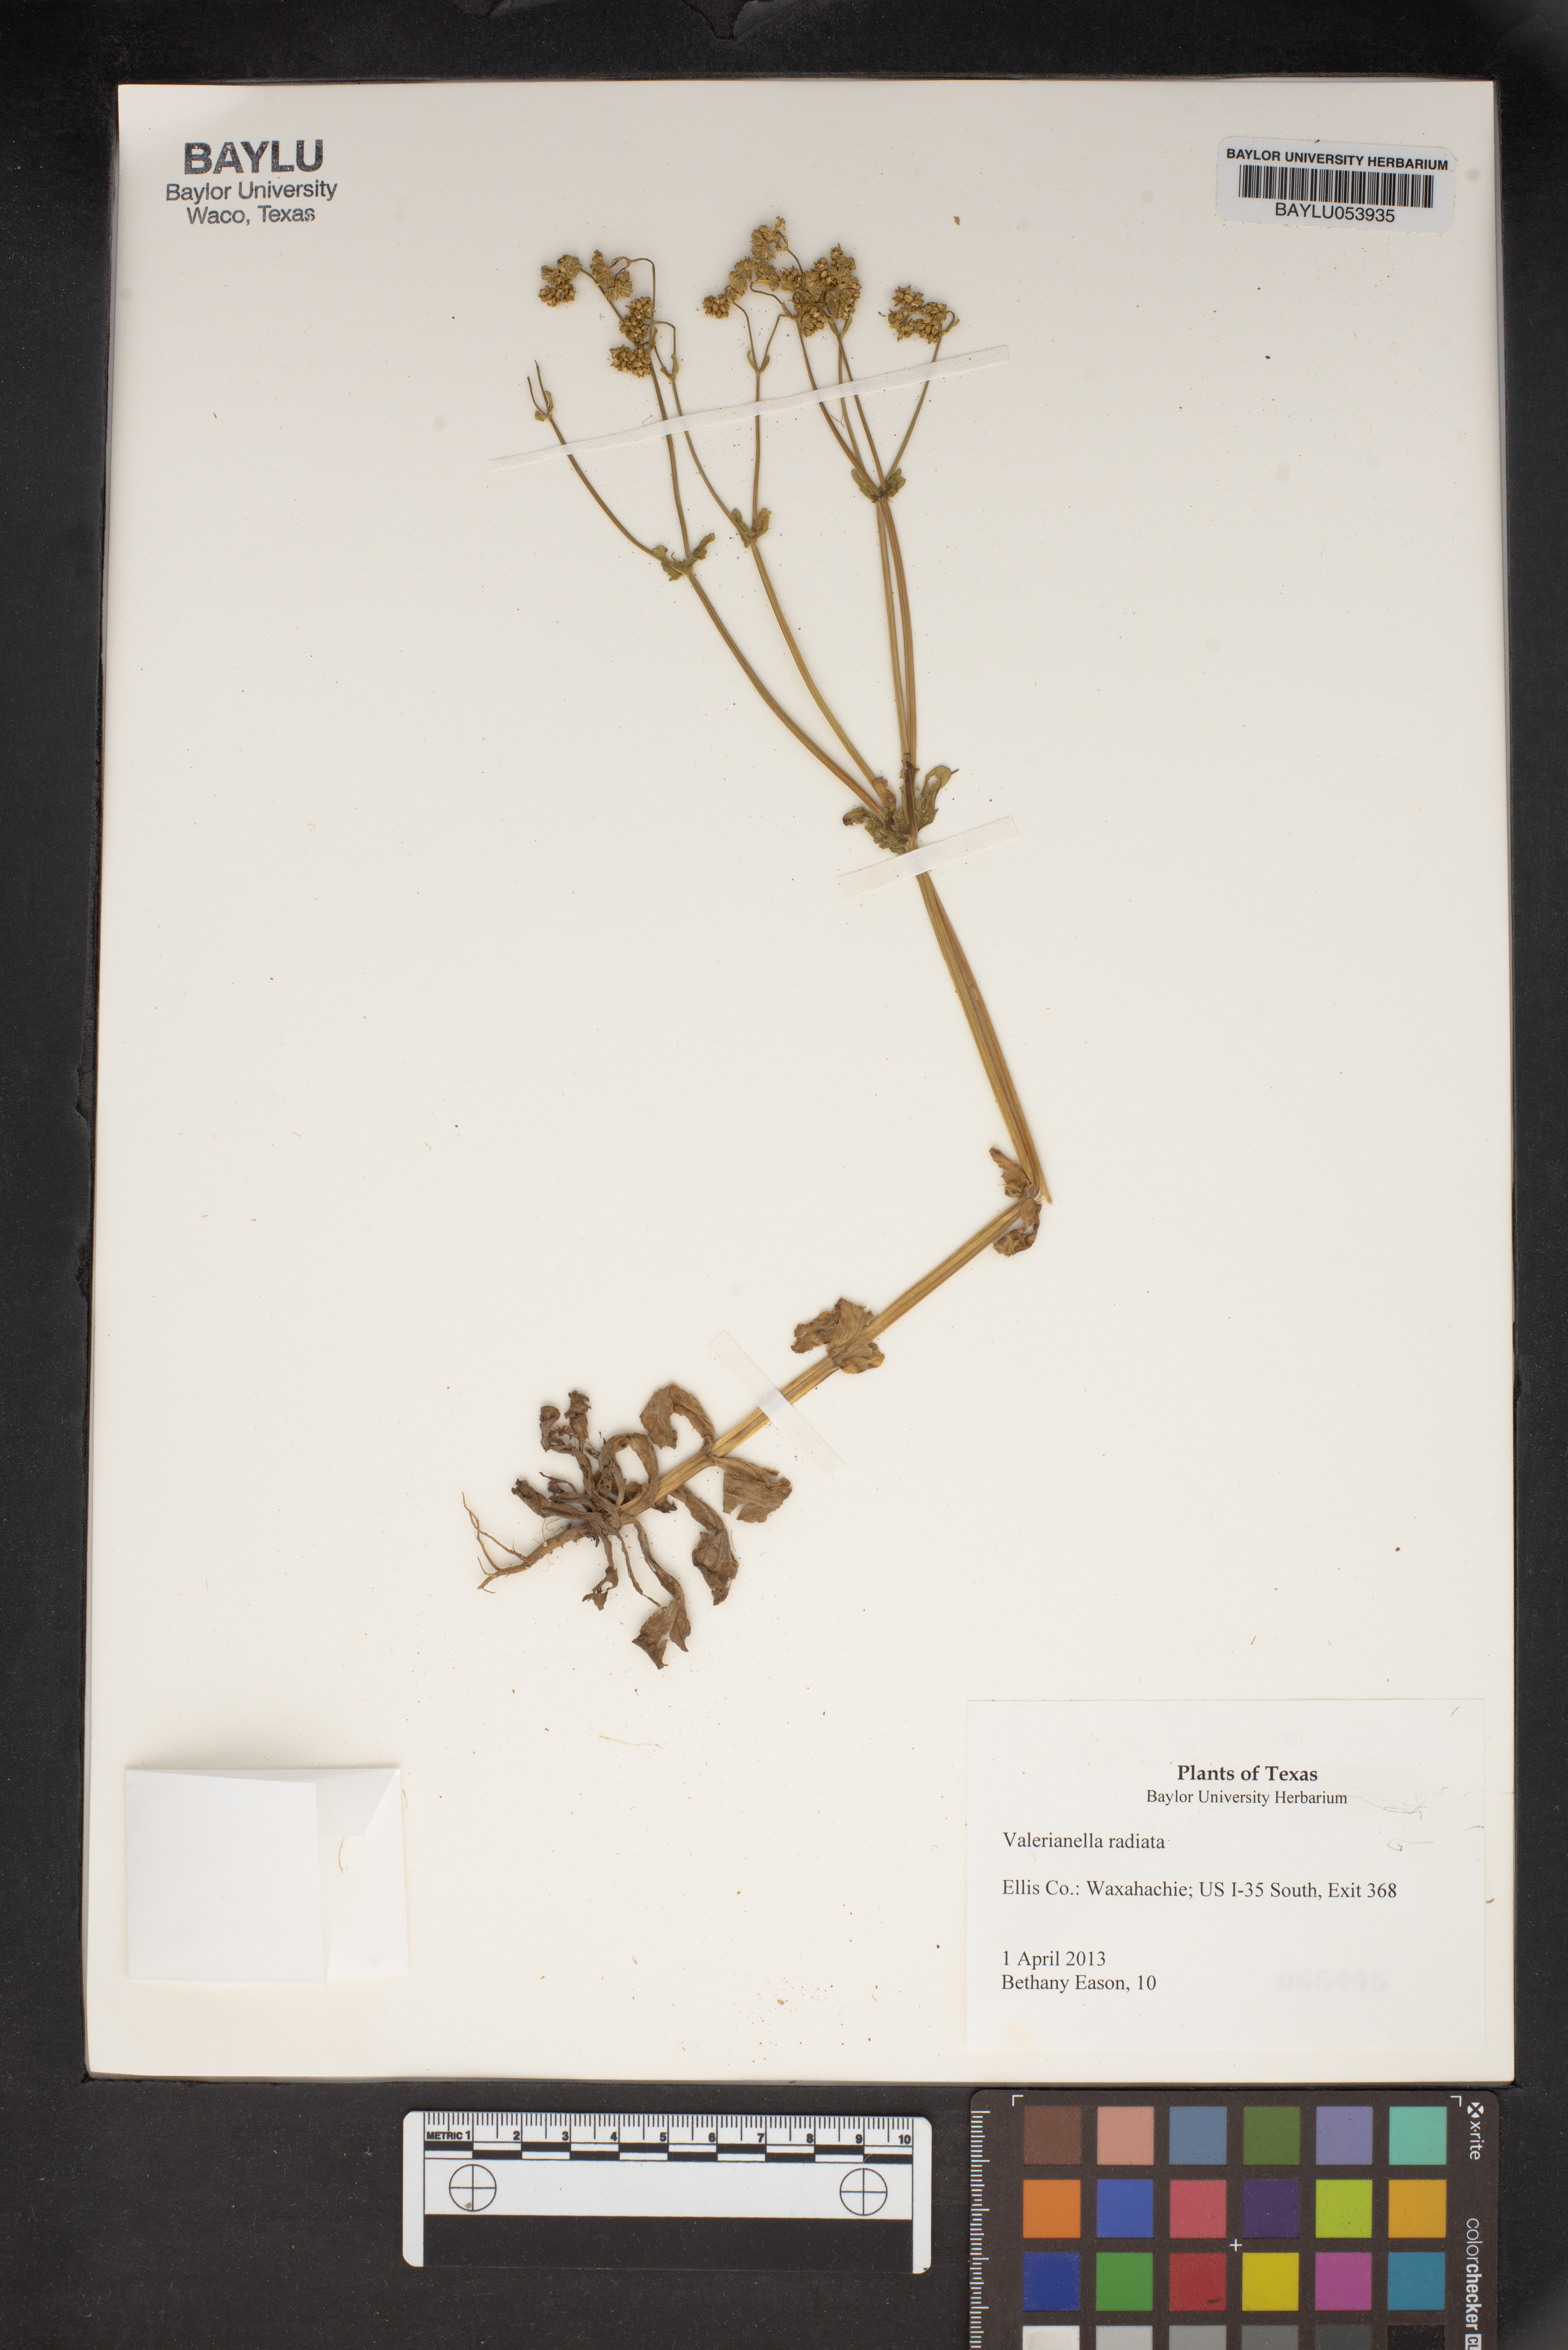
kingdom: Plantae
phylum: Tracheophyta
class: Magnoliopsida
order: Dipsacales
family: Caprifoliaceae
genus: Valerianella
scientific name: Valerianella radiata
